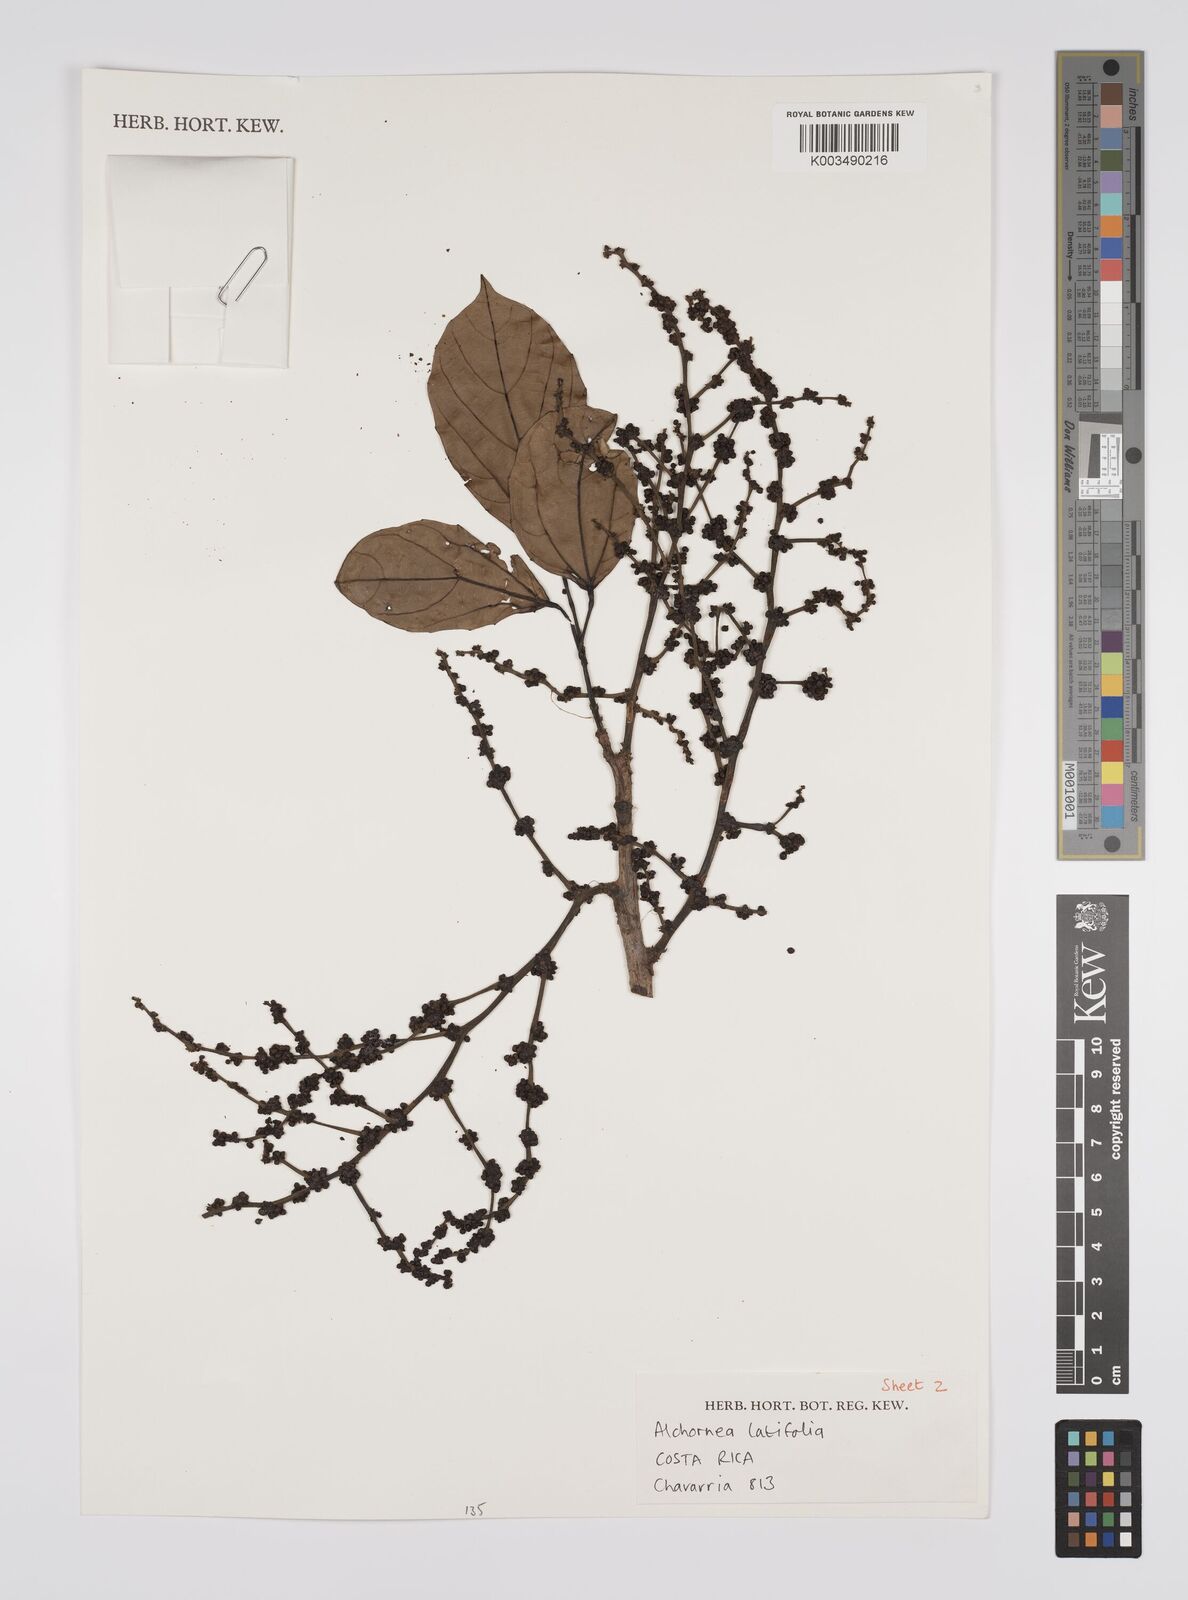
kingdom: Plantae
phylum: Tracheophyta
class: Magnoliopsida
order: Malpighiales
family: Euphorbiaceae
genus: Alchornea
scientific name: Alchornea latifolia
